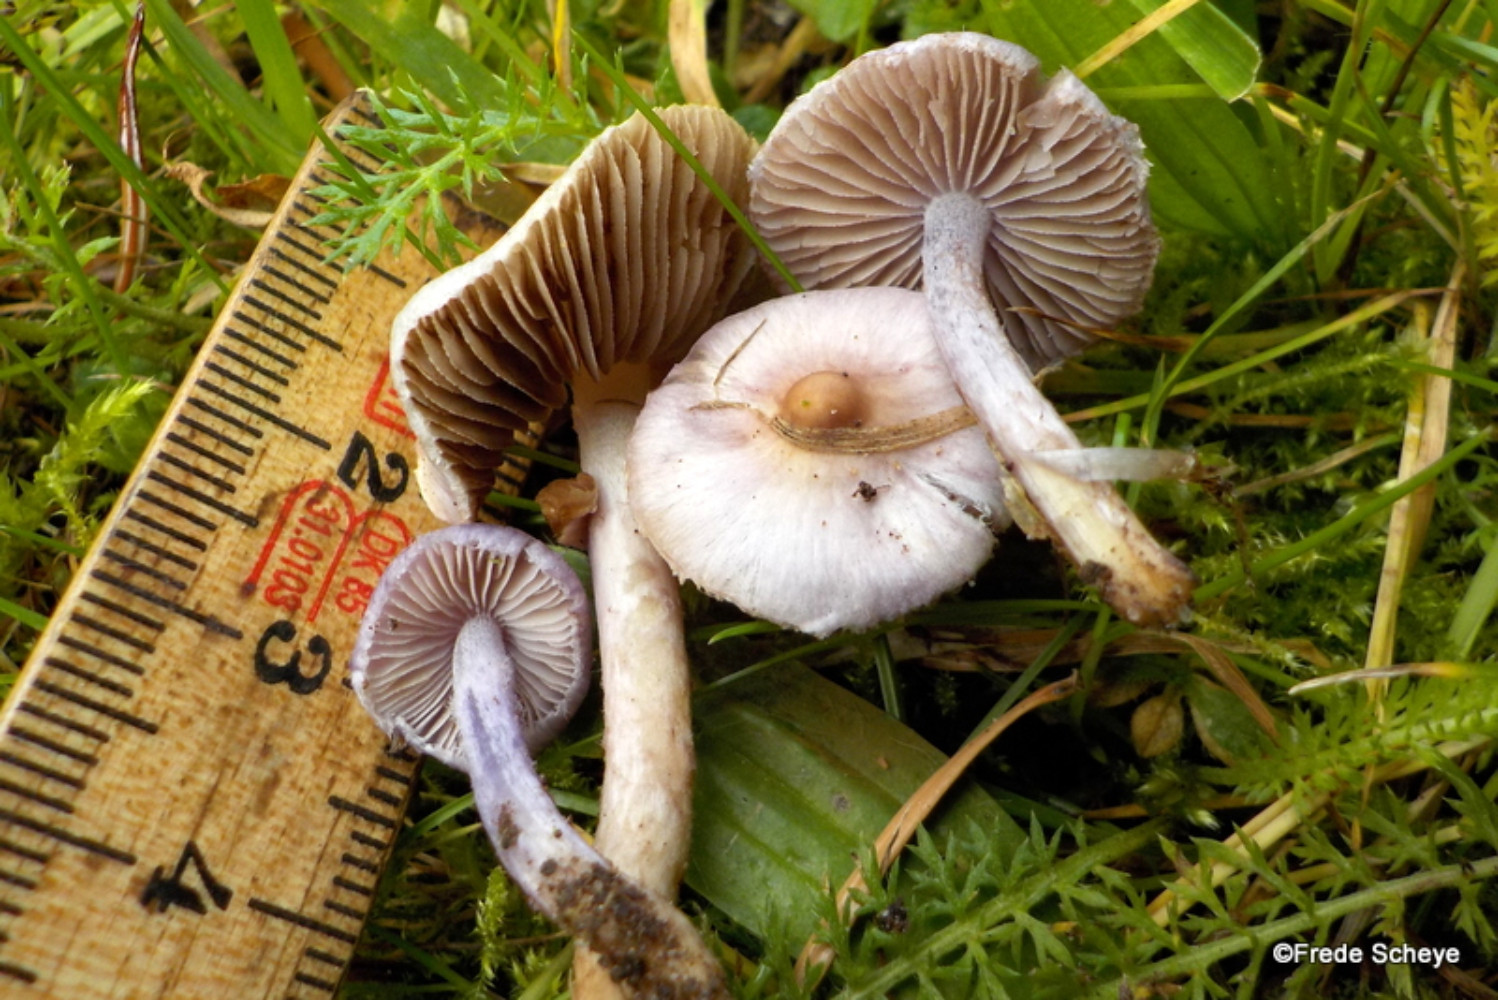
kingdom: Fungi
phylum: Basidiomycota
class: Agaricomycetes
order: Agaricales
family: Inocybaceae
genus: Inocybe
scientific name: Inocybe geophylla
